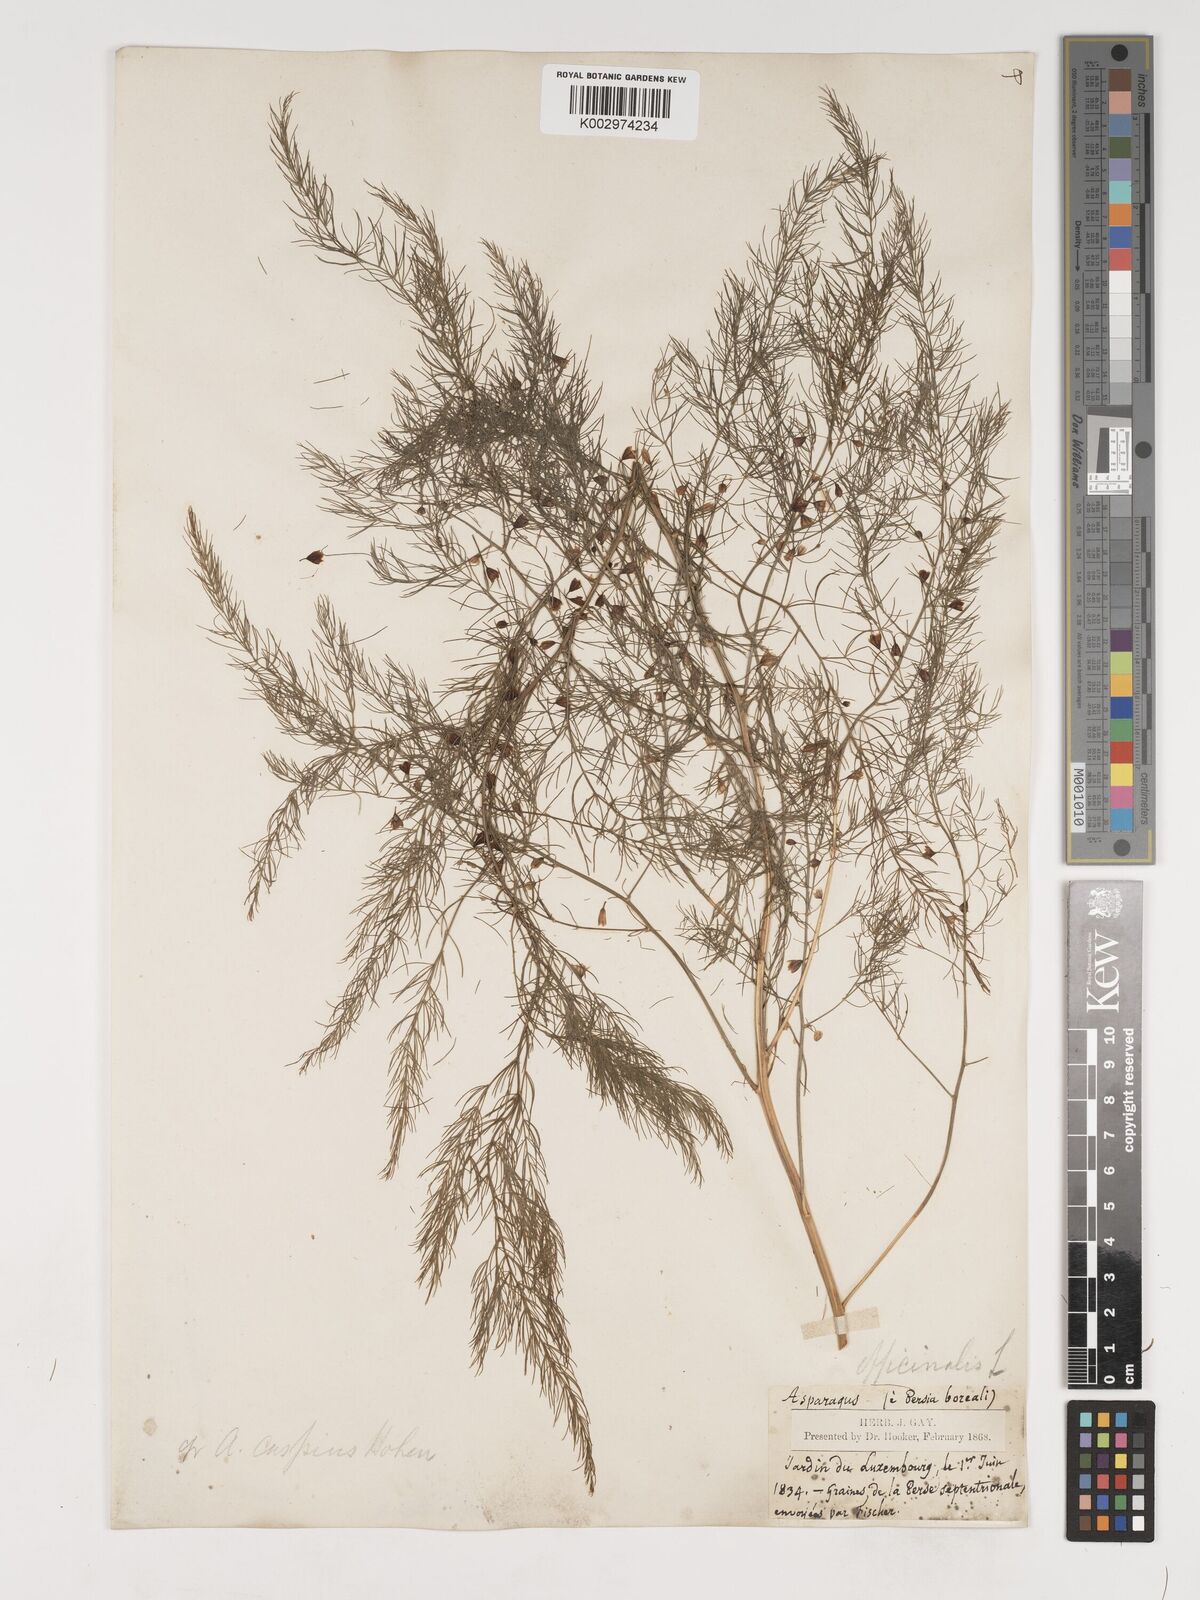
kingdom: Plantae
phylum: Tracheophyta
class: Liliopsida
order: Asparagales
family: Asparagaceae
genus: Asparagus
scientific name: Asparagus officinalis
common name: Garden asparagus
